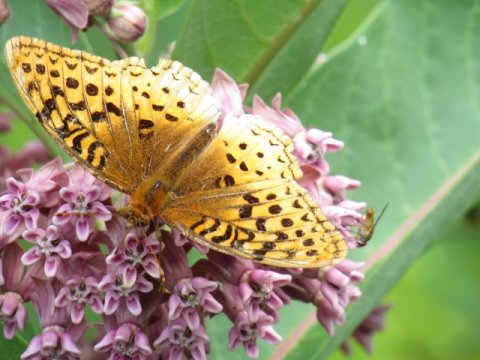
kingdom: Animalia
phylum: Arthropoda
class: Insecta
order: Lepidoptera
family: Nymphalidae
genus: Speyeria
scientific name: Speyeria cybele
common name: Great Spangled Fritillary
